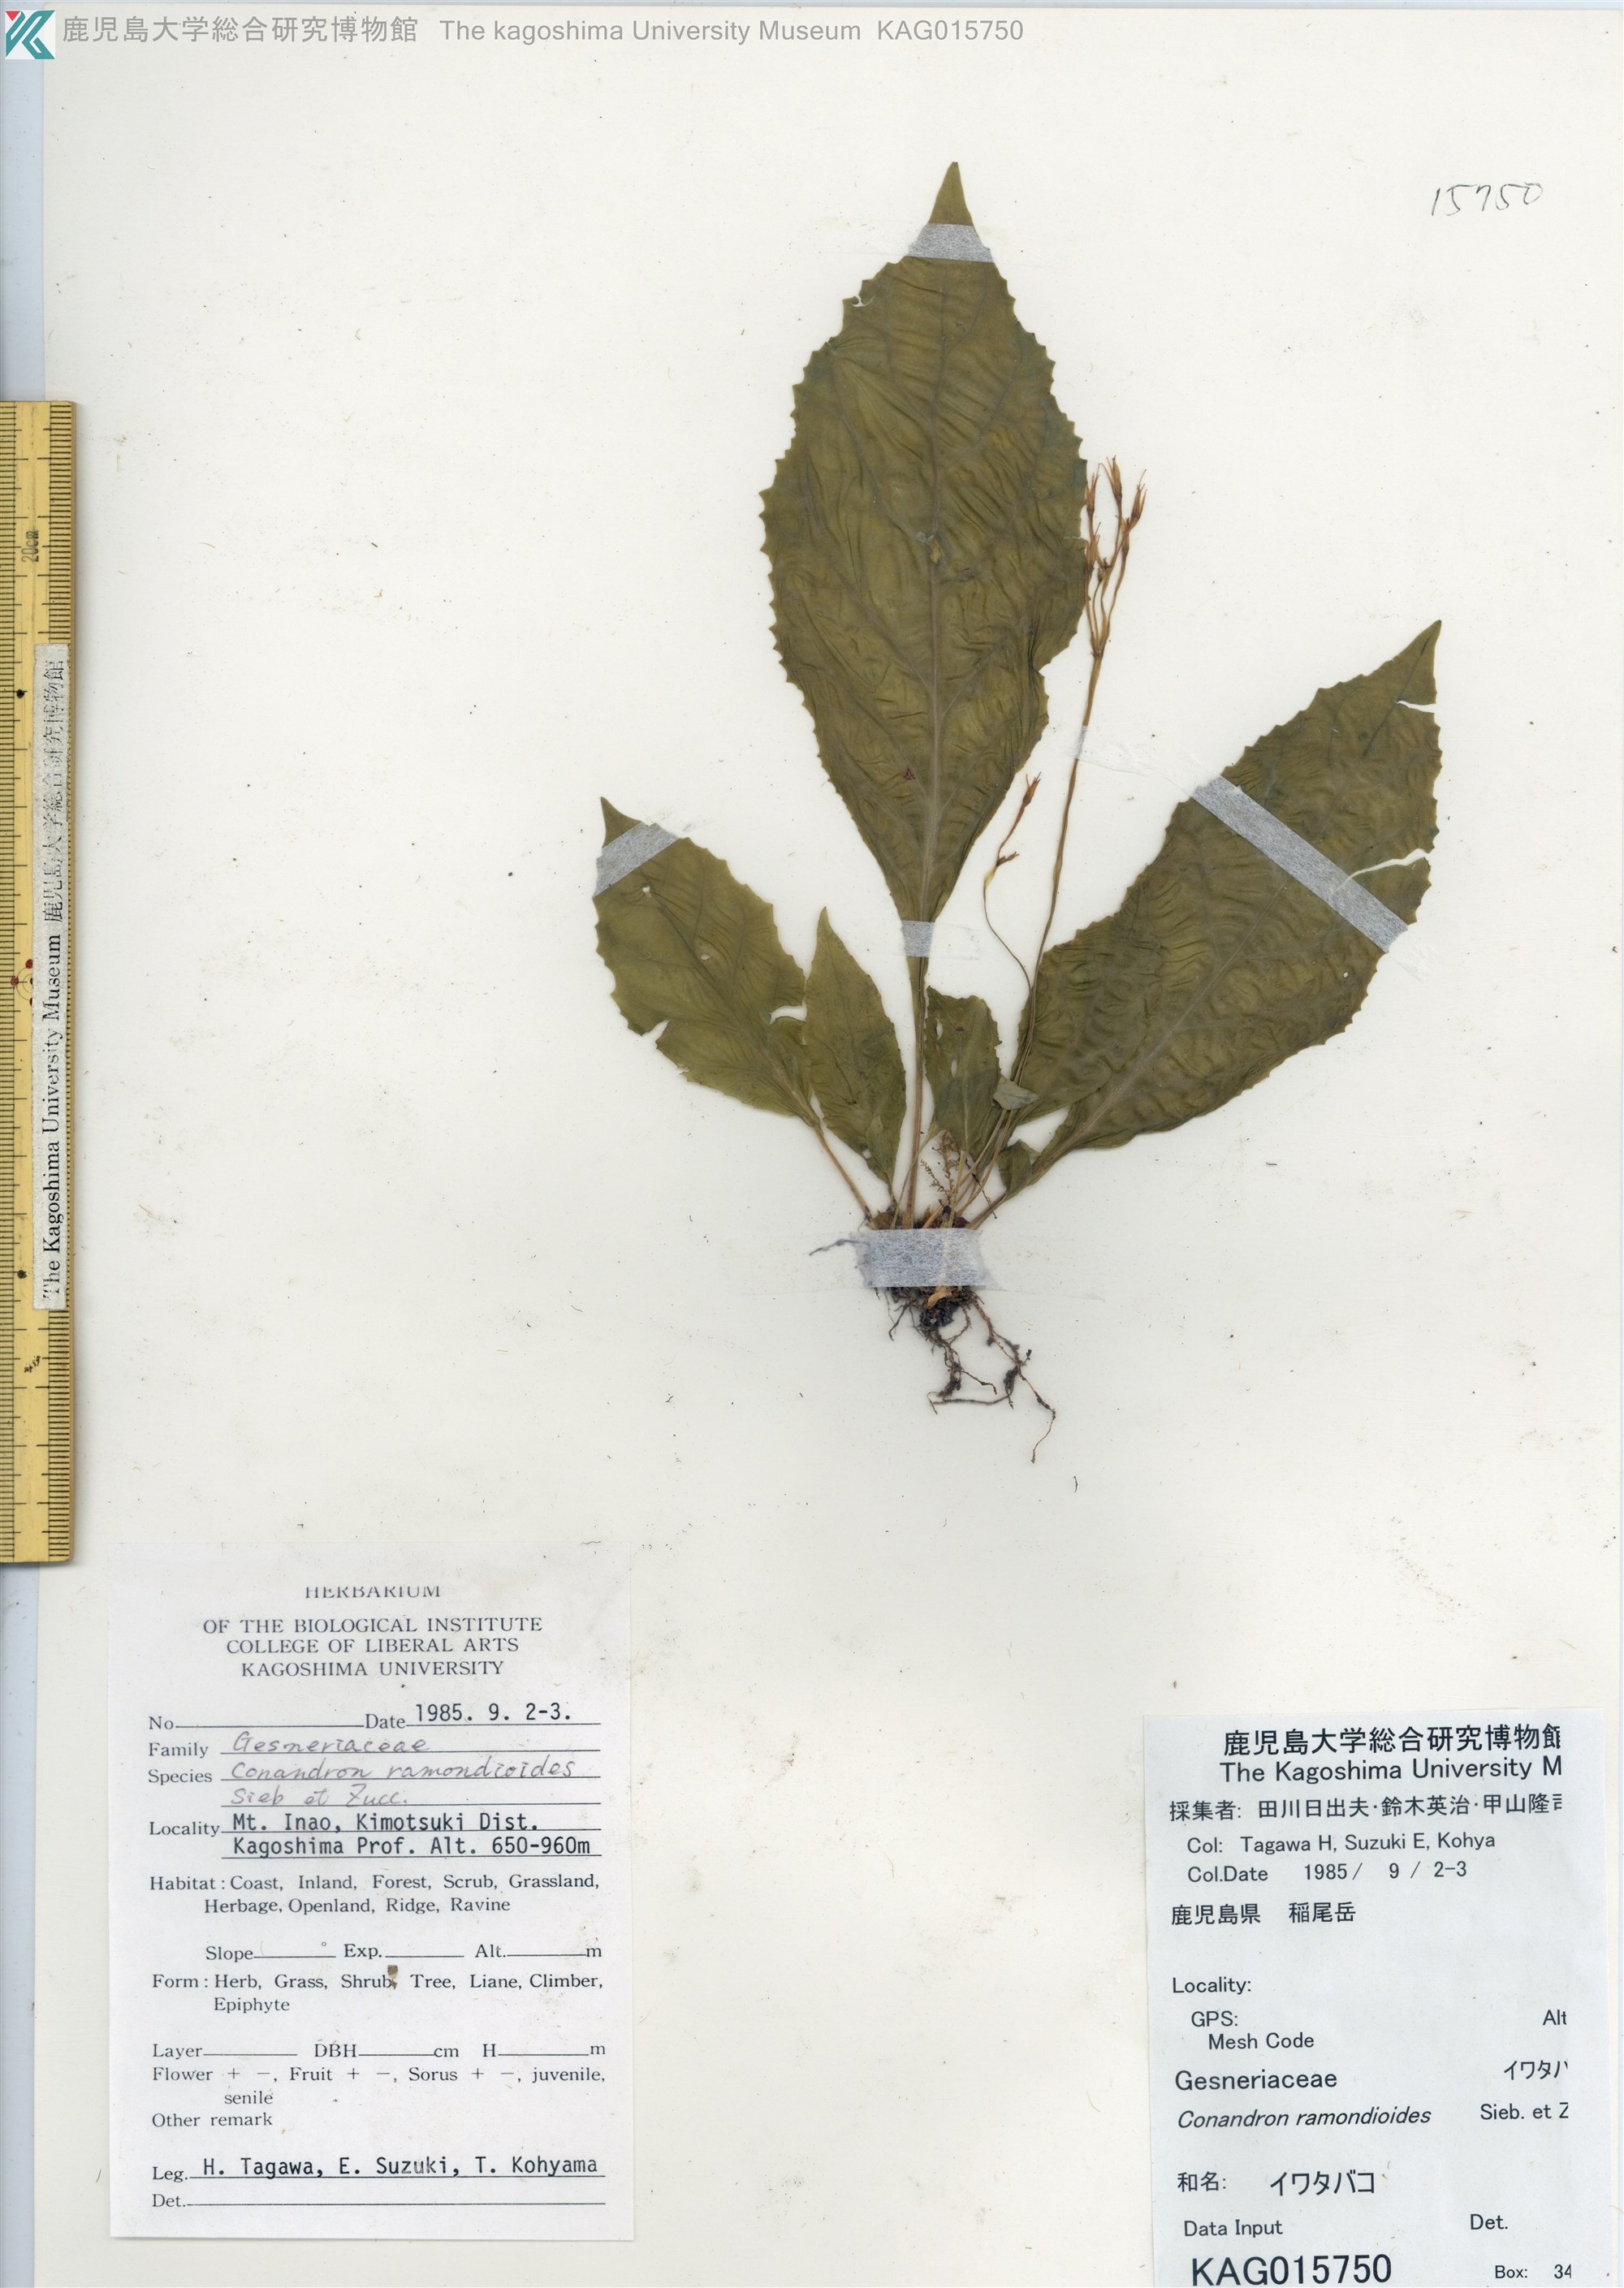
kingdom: Plantae
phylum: Tracheophyta
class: Magnoliopsida
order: Lamiales
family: Gesneriaceae
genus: Conandron
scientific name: Conandron ramondioides
